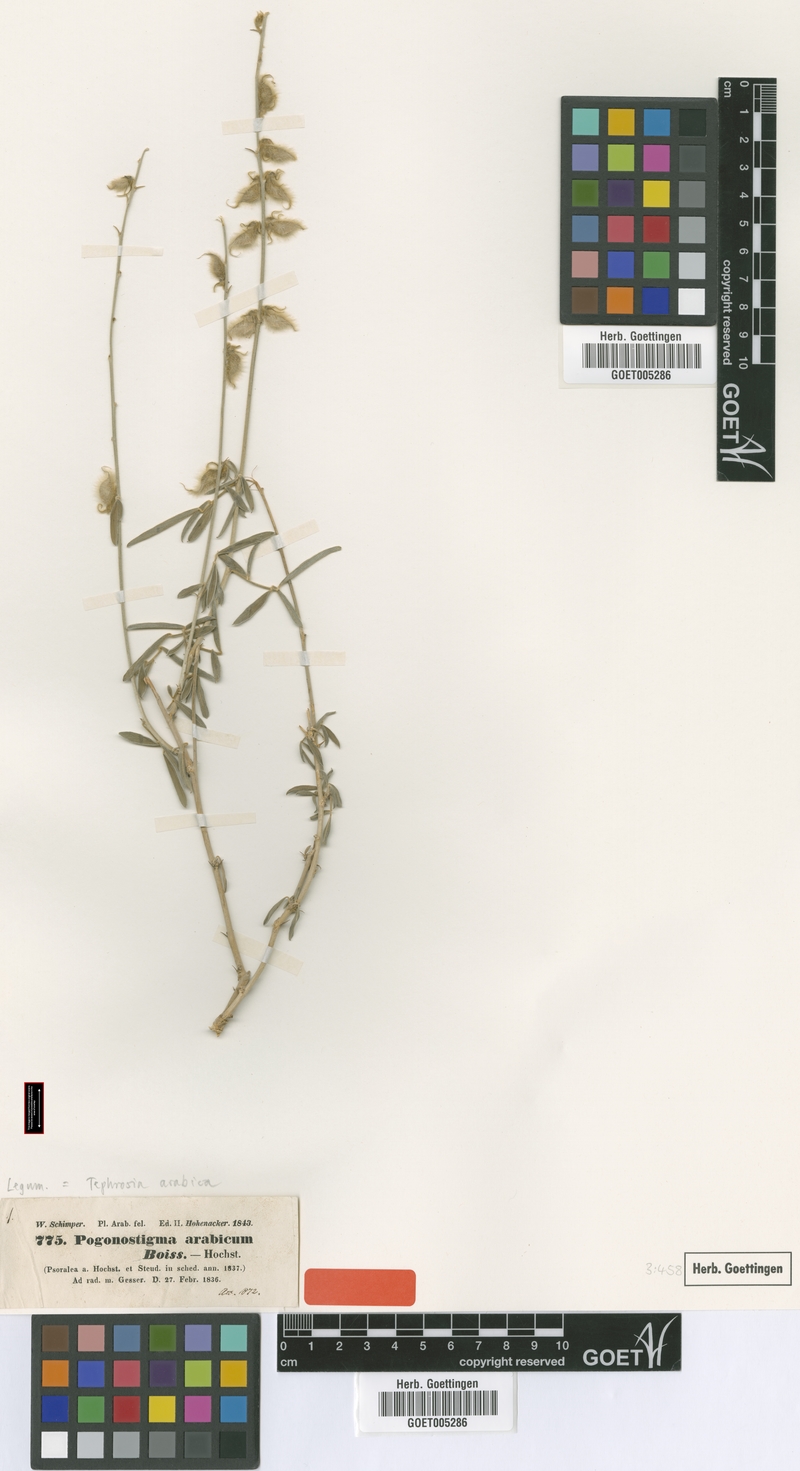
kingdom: Plantae
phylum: Tracheophyta
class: Magnoliopsida
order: Fabales
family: Fabaceae
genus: Tephrosia
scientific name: Tephrosia nubica
